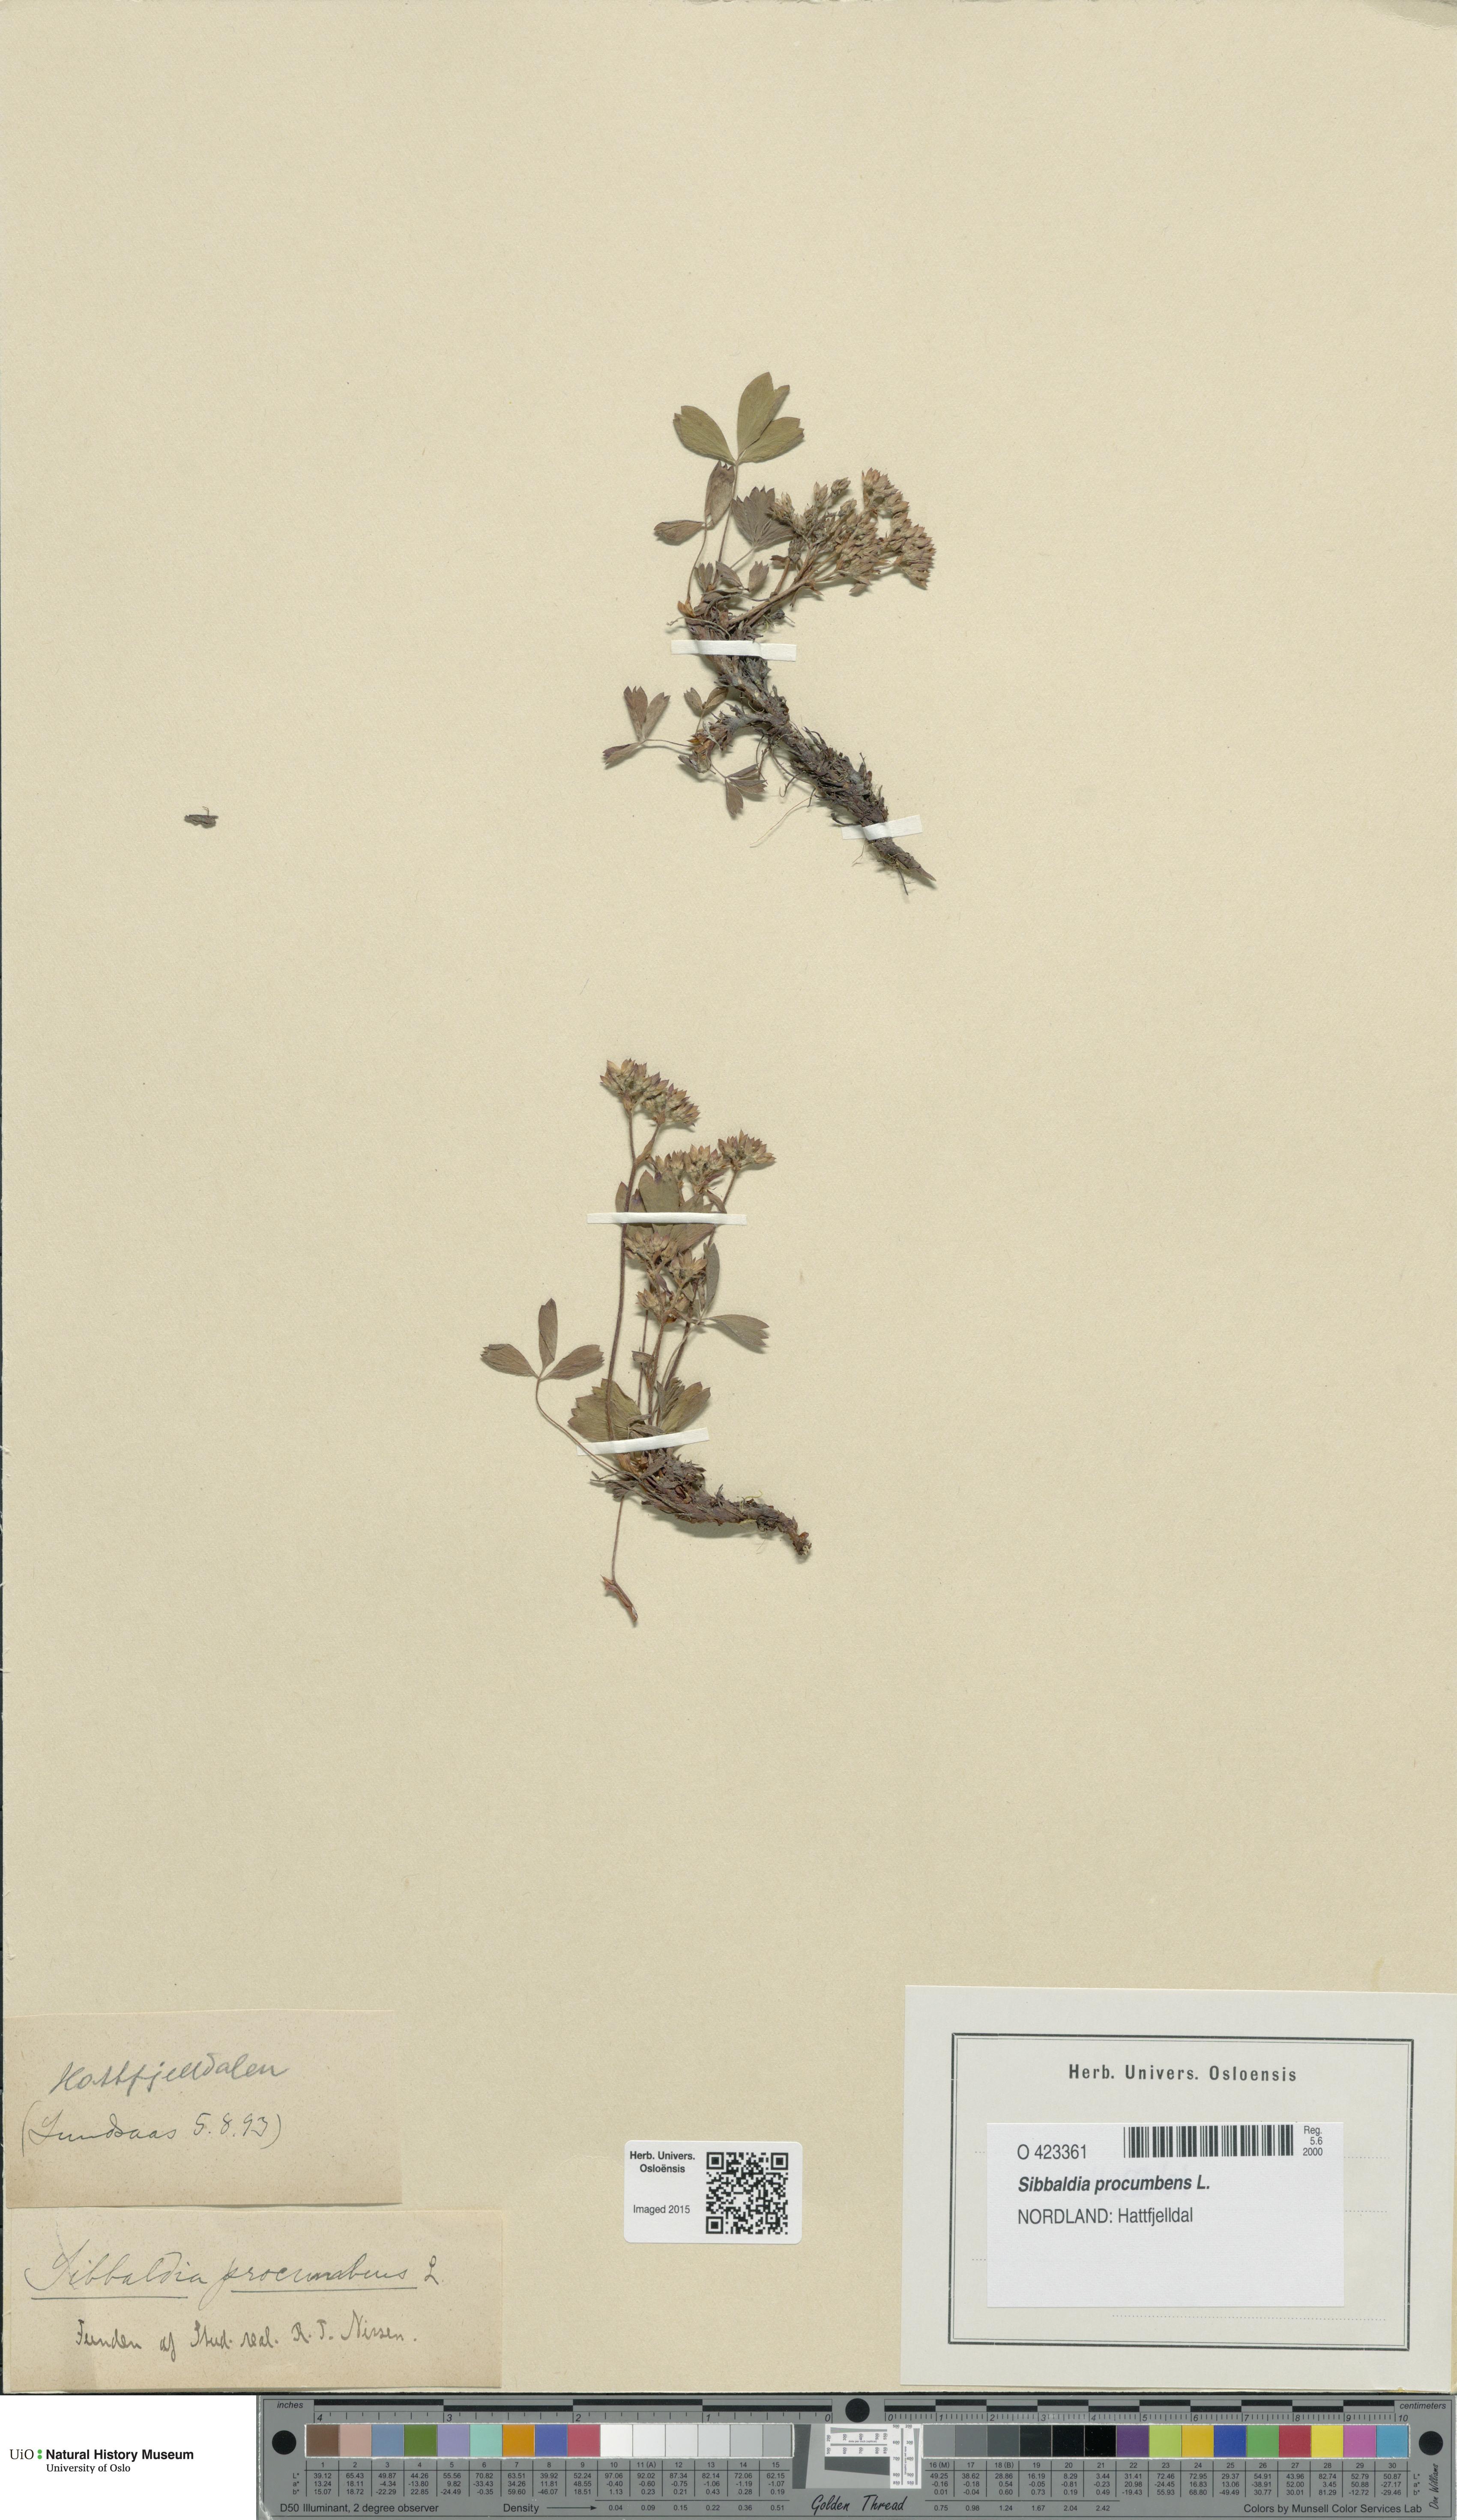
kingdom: Plantae
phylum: Tracheophyta
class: Magnoliopsida
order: Rosales
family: Rosaceae
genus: Sibbaldia
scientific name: Sibbaldia procumbens
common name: Creeping sibbaldia
